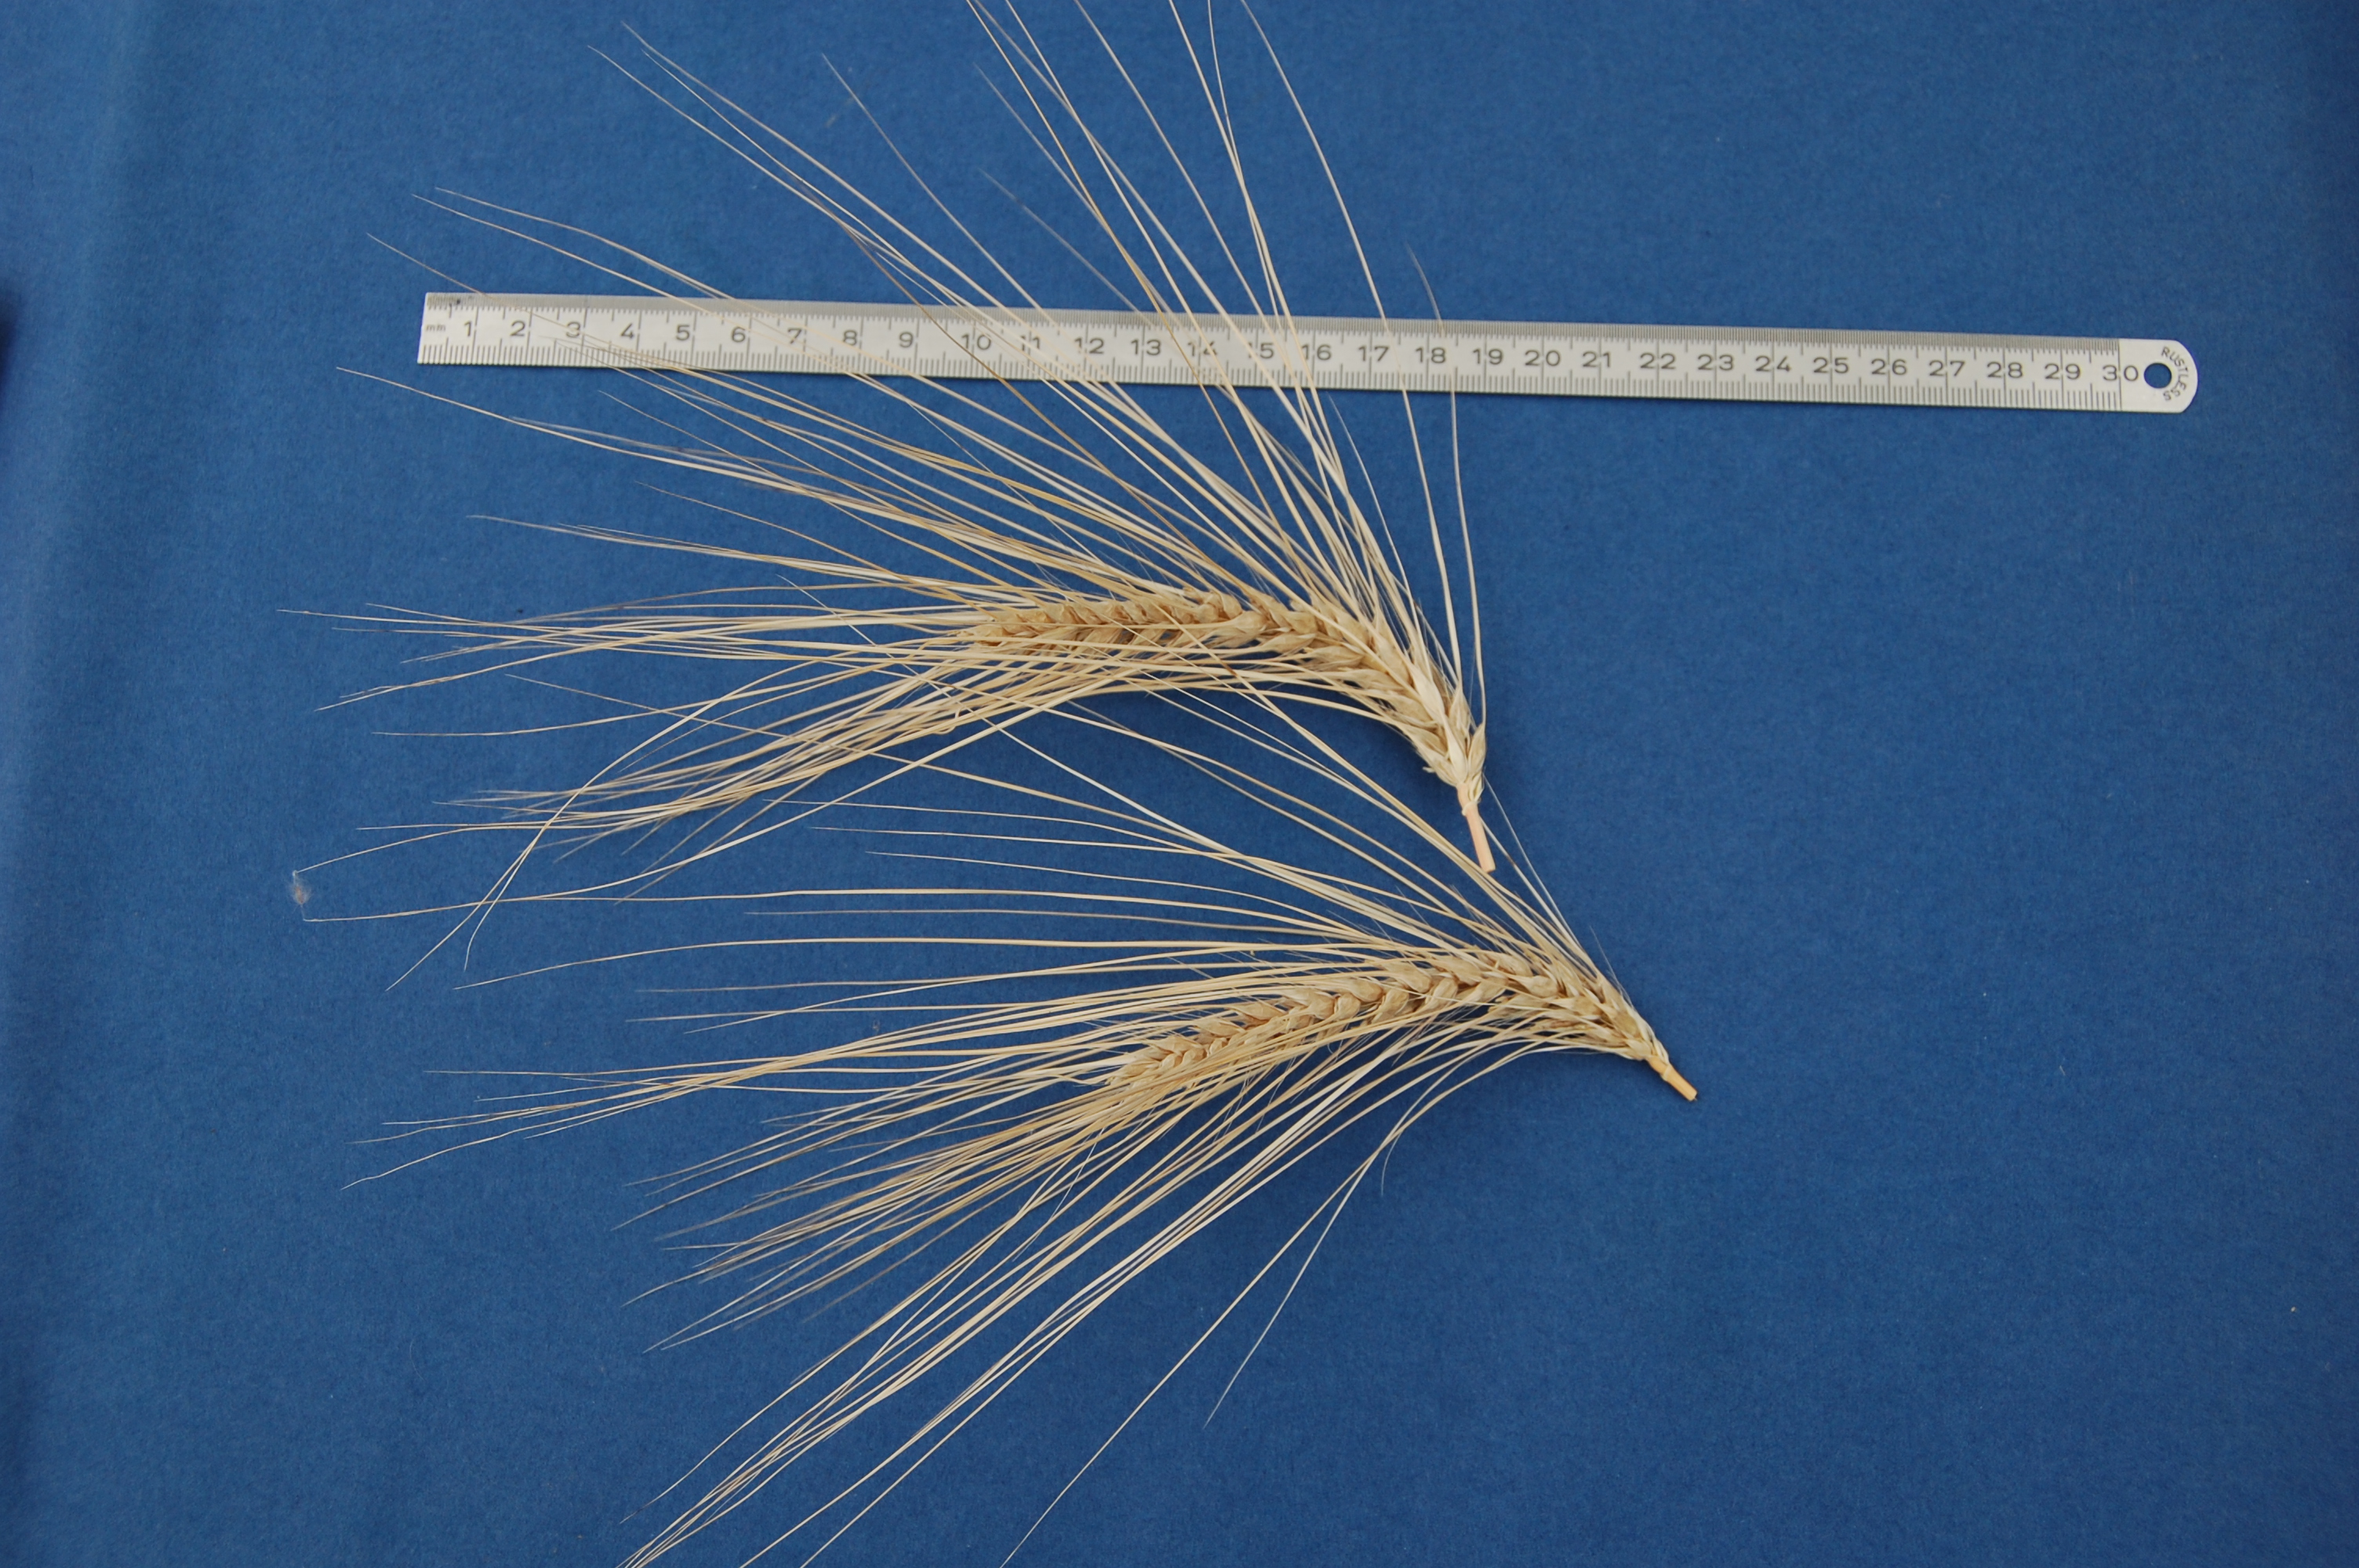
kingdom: Plantae
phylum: Tracheophyta
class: Liliopsida
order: Poales
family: Poaceae
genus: Hordeum
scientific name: Hordeum vulgare
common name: Common barley
